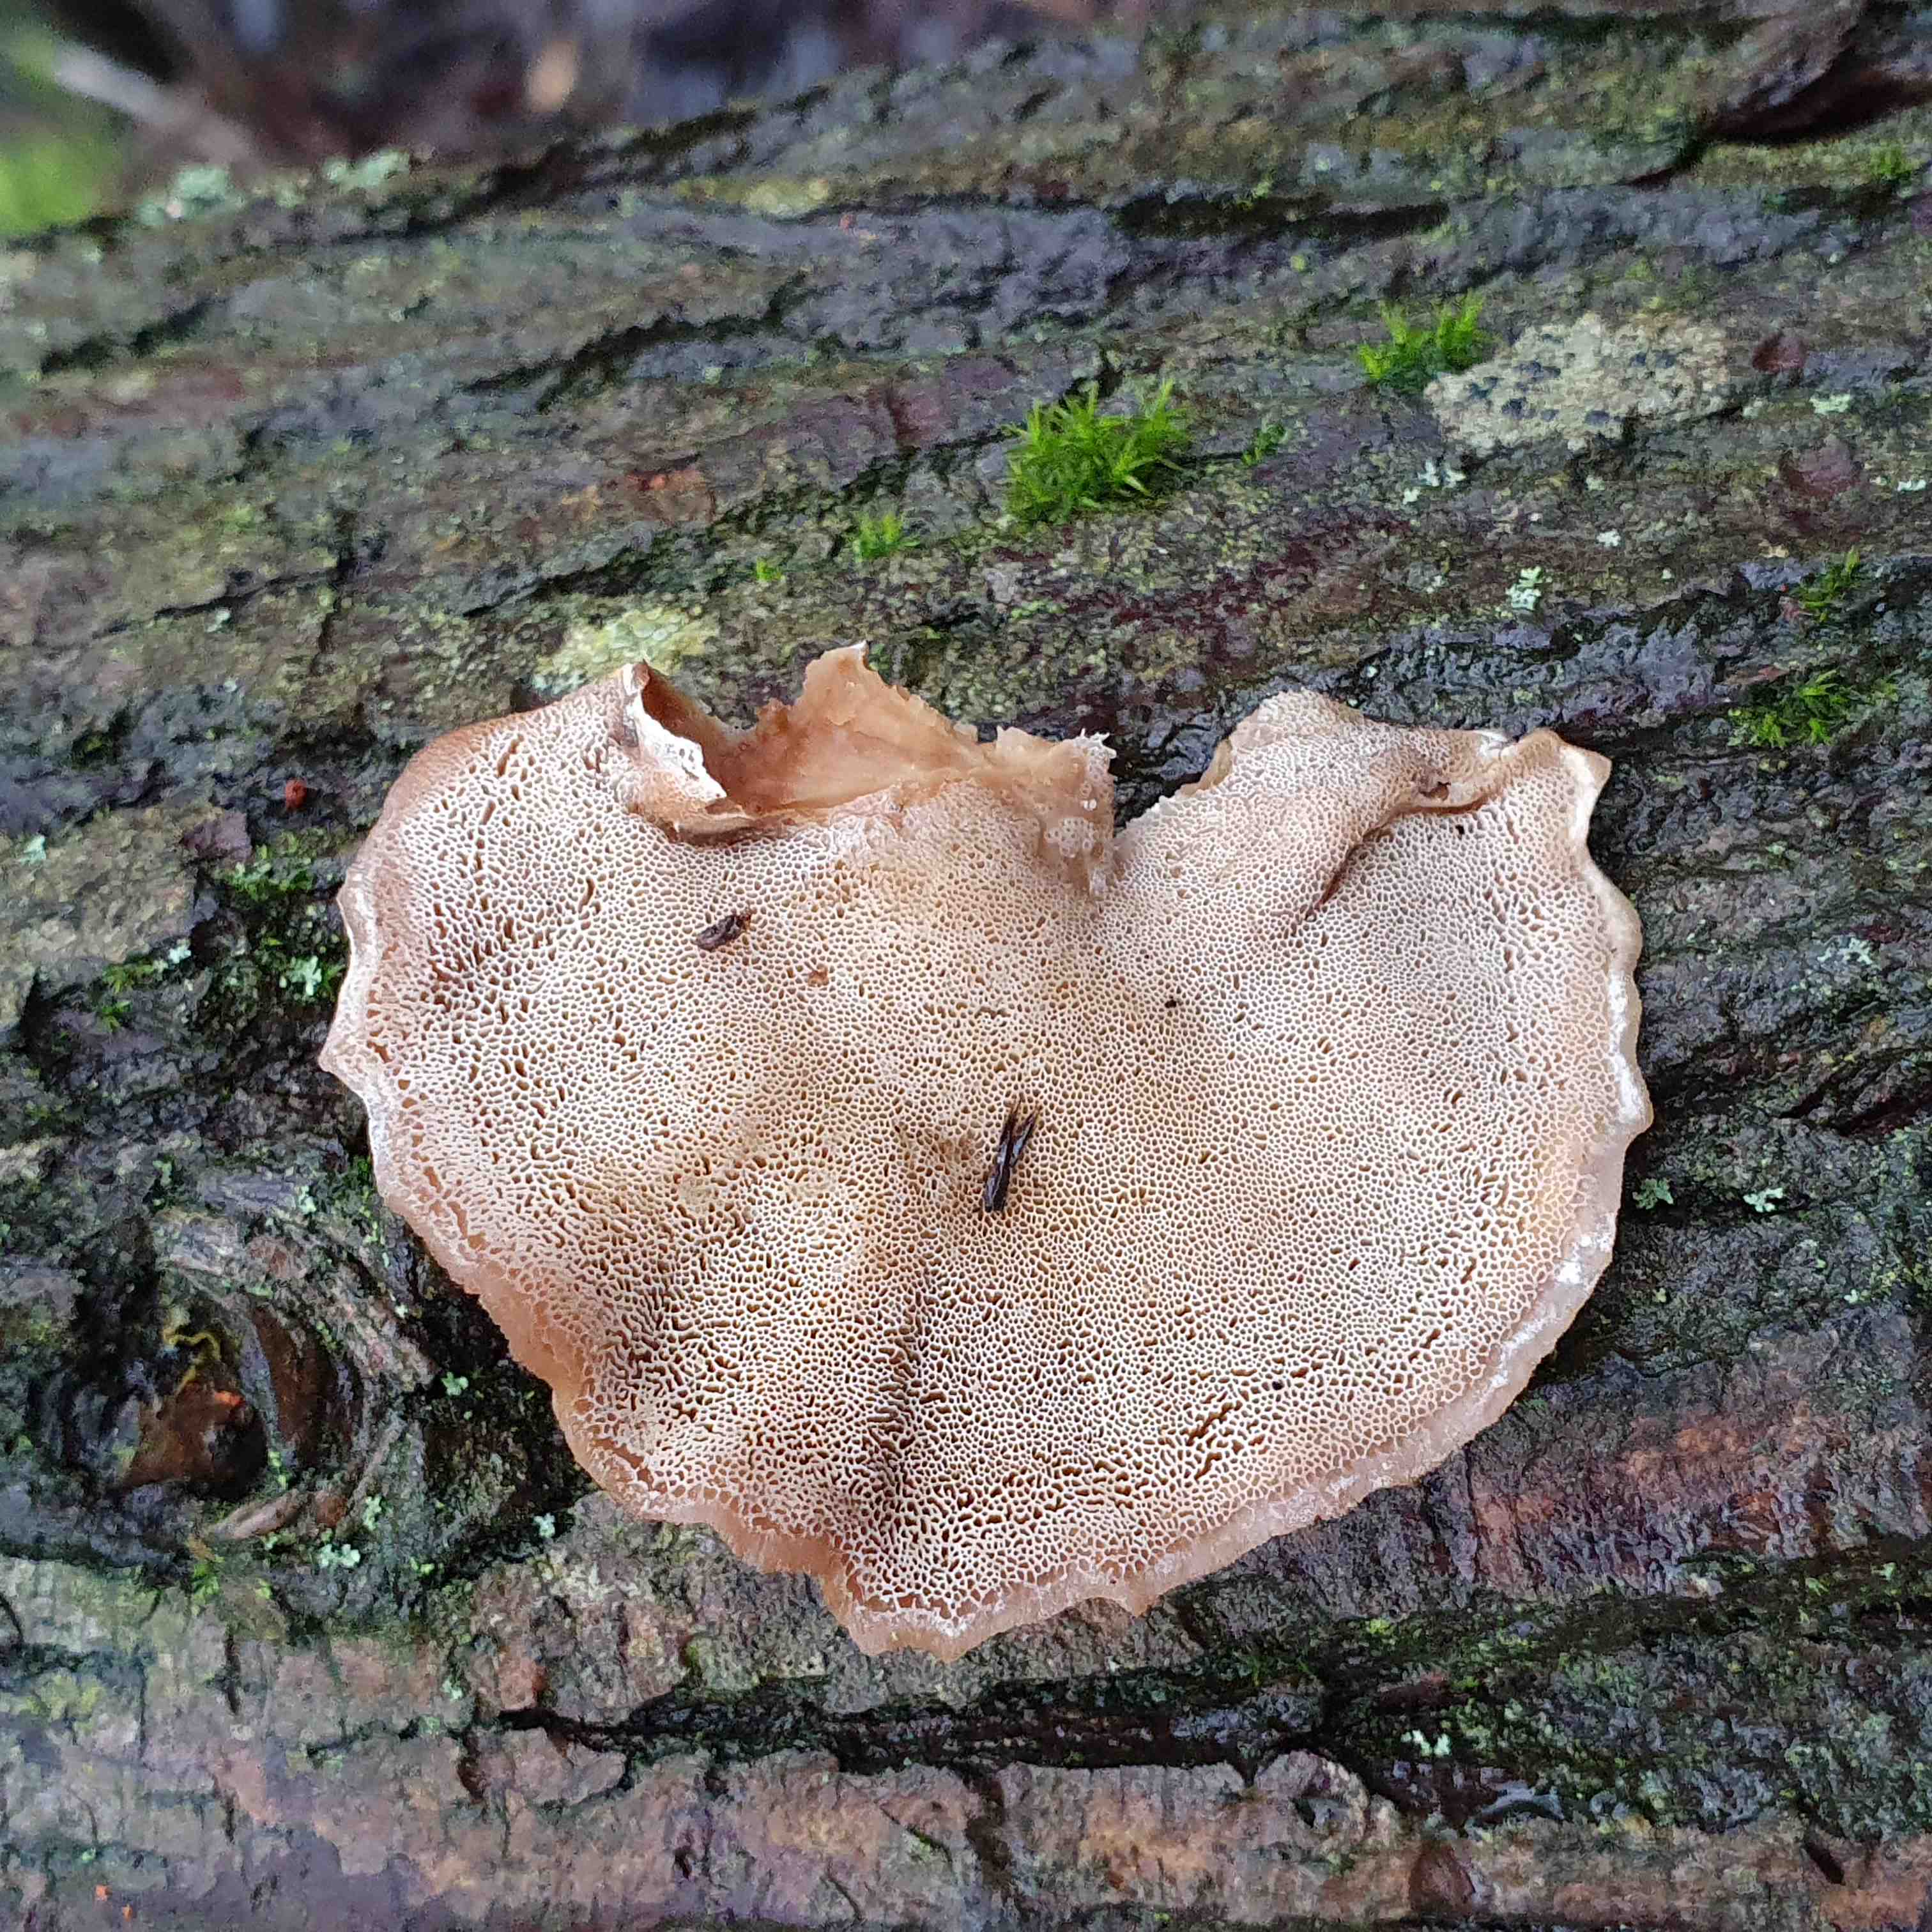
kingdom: Fungi
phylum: Basidiomycota
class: Agaricomycetes
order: Polyporales
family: Phanerochaetaceae
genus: Bjerkandera
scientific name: Bjerkandera fumosa
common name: grågul sodporesvamp
